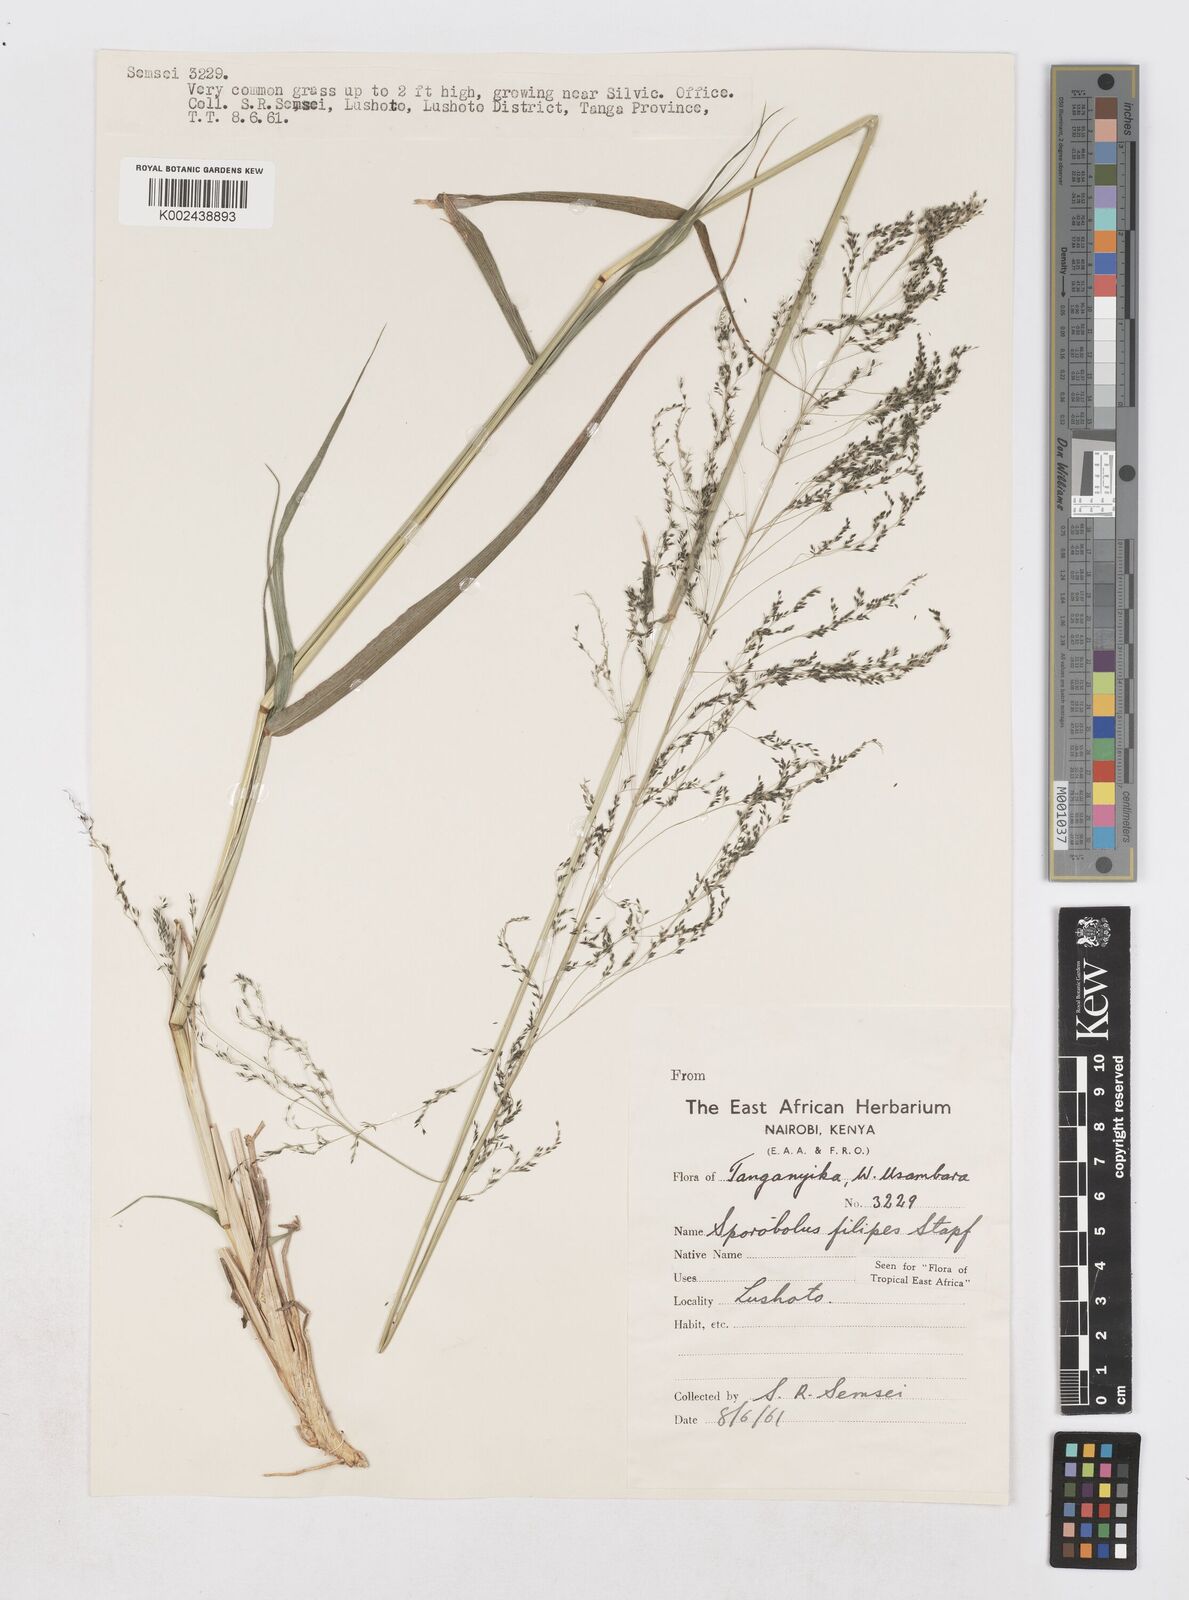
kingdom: Plantae
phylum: Tracheophyta
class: Liliopsida
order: Poales
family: Poaceae
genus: Sporobolus
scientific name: Sporobolus agrostoides
